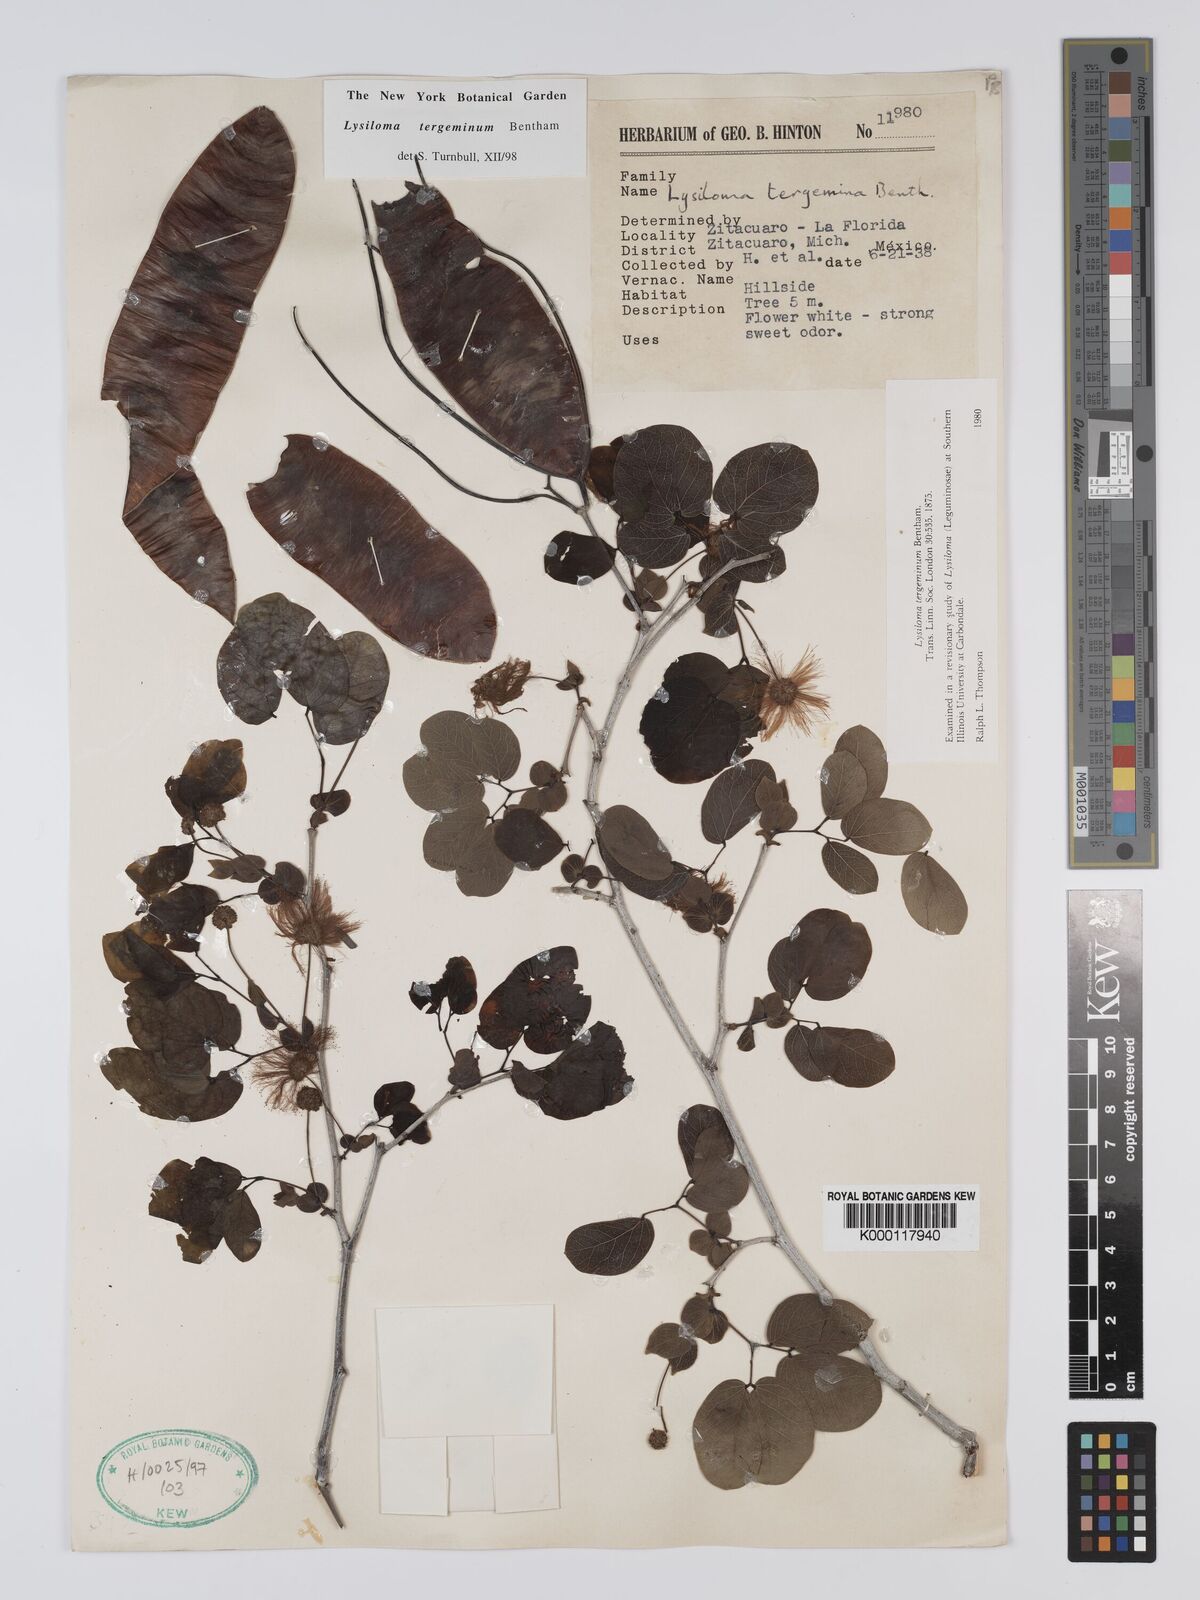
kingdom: Plantae
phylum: Tracheophyta
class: Magnoliopsida
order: Fabales
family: Fabaceae
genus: Lysiloma
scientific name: Lysiloma tergeminum
